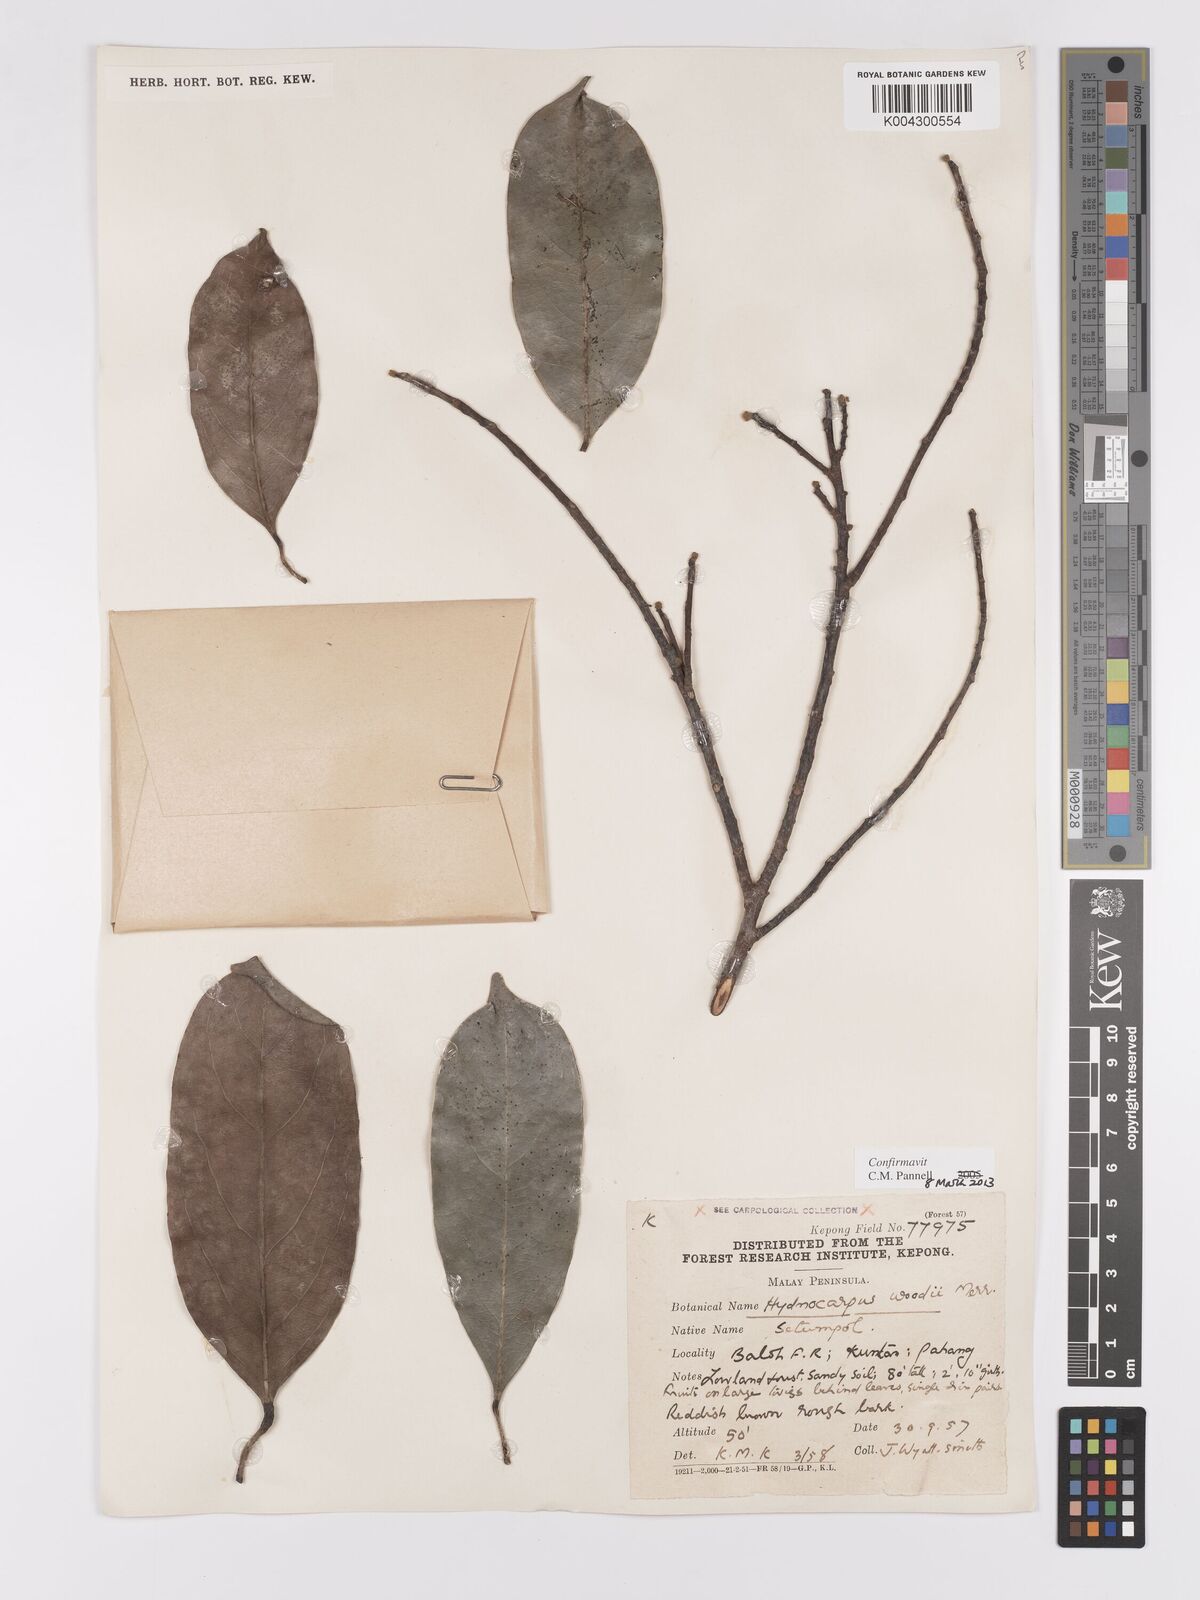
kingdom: Plantae
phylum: Tracheophyta
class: Magnoliopsida
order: Malpighiales
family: Achariaceae
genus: Hydnocarpus
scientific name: Hydnocarpus woodii
